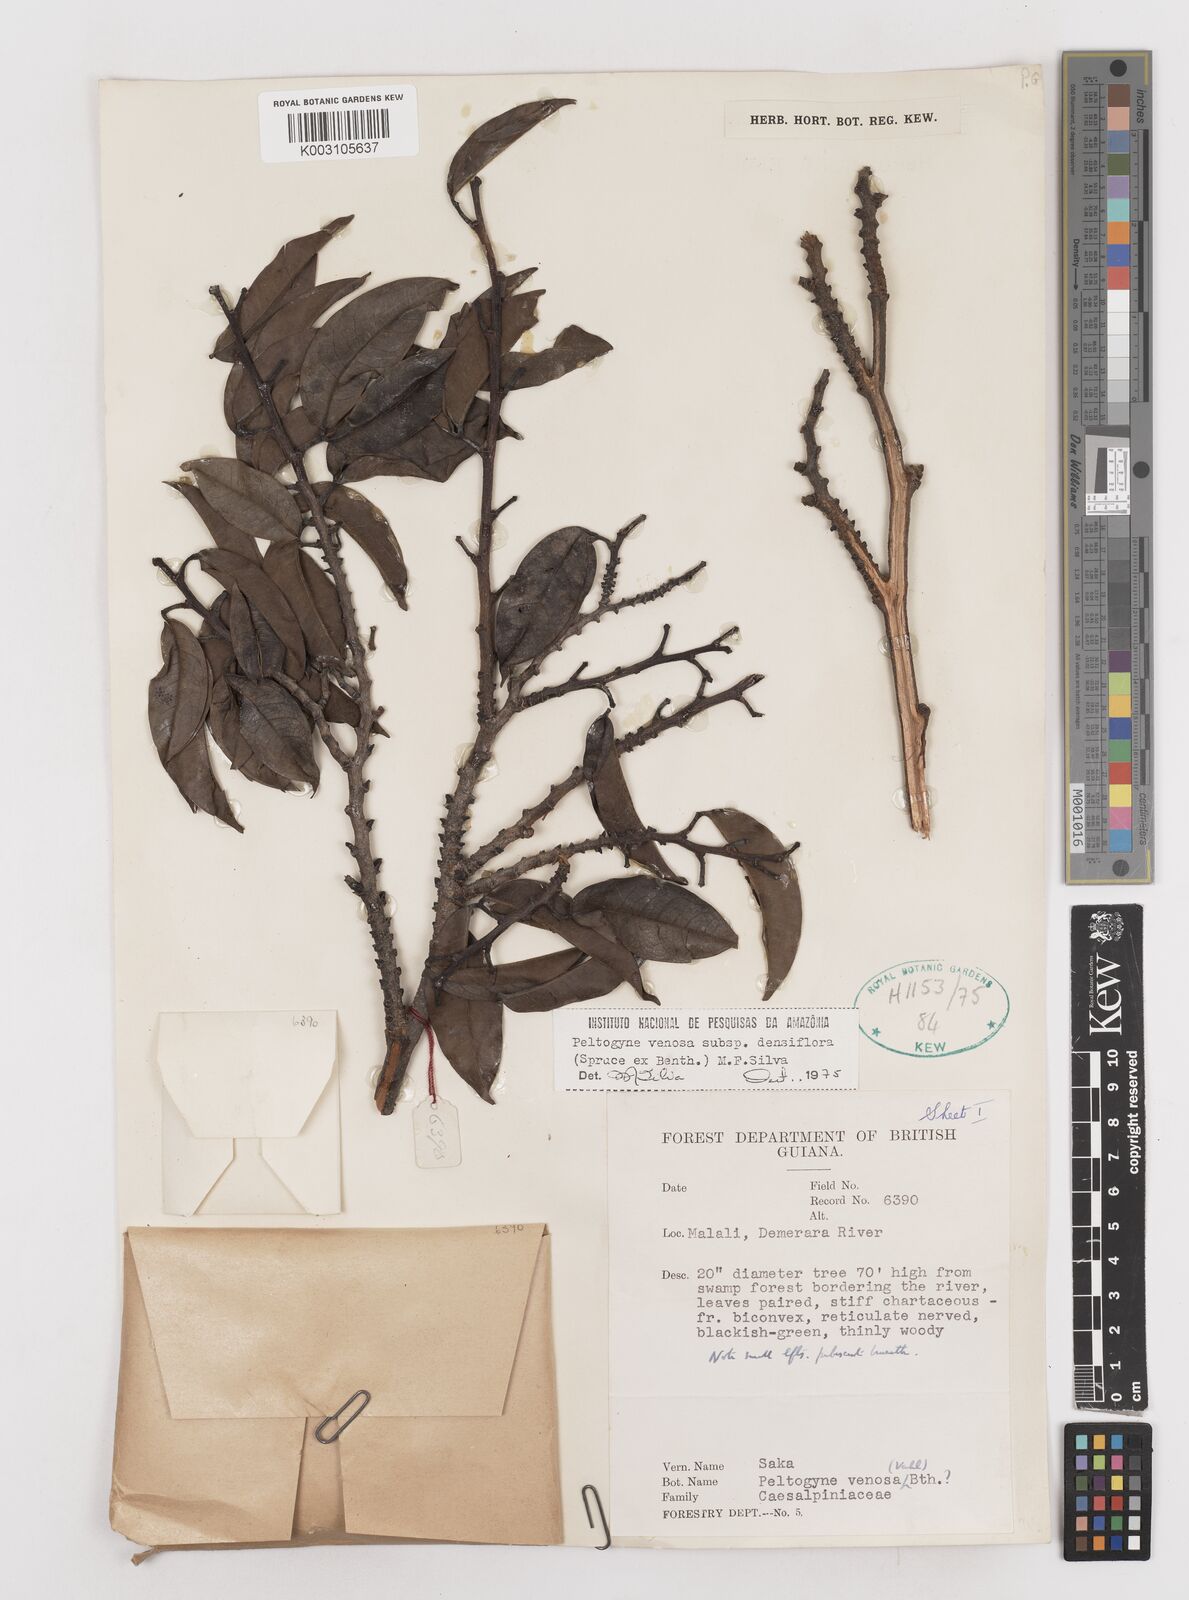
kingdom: Plantae
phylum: Tracheophyta
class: Magnoliopsida
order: Fabales
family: Fabaceae
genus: Peltogyne
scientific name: Peltogyne venosa
